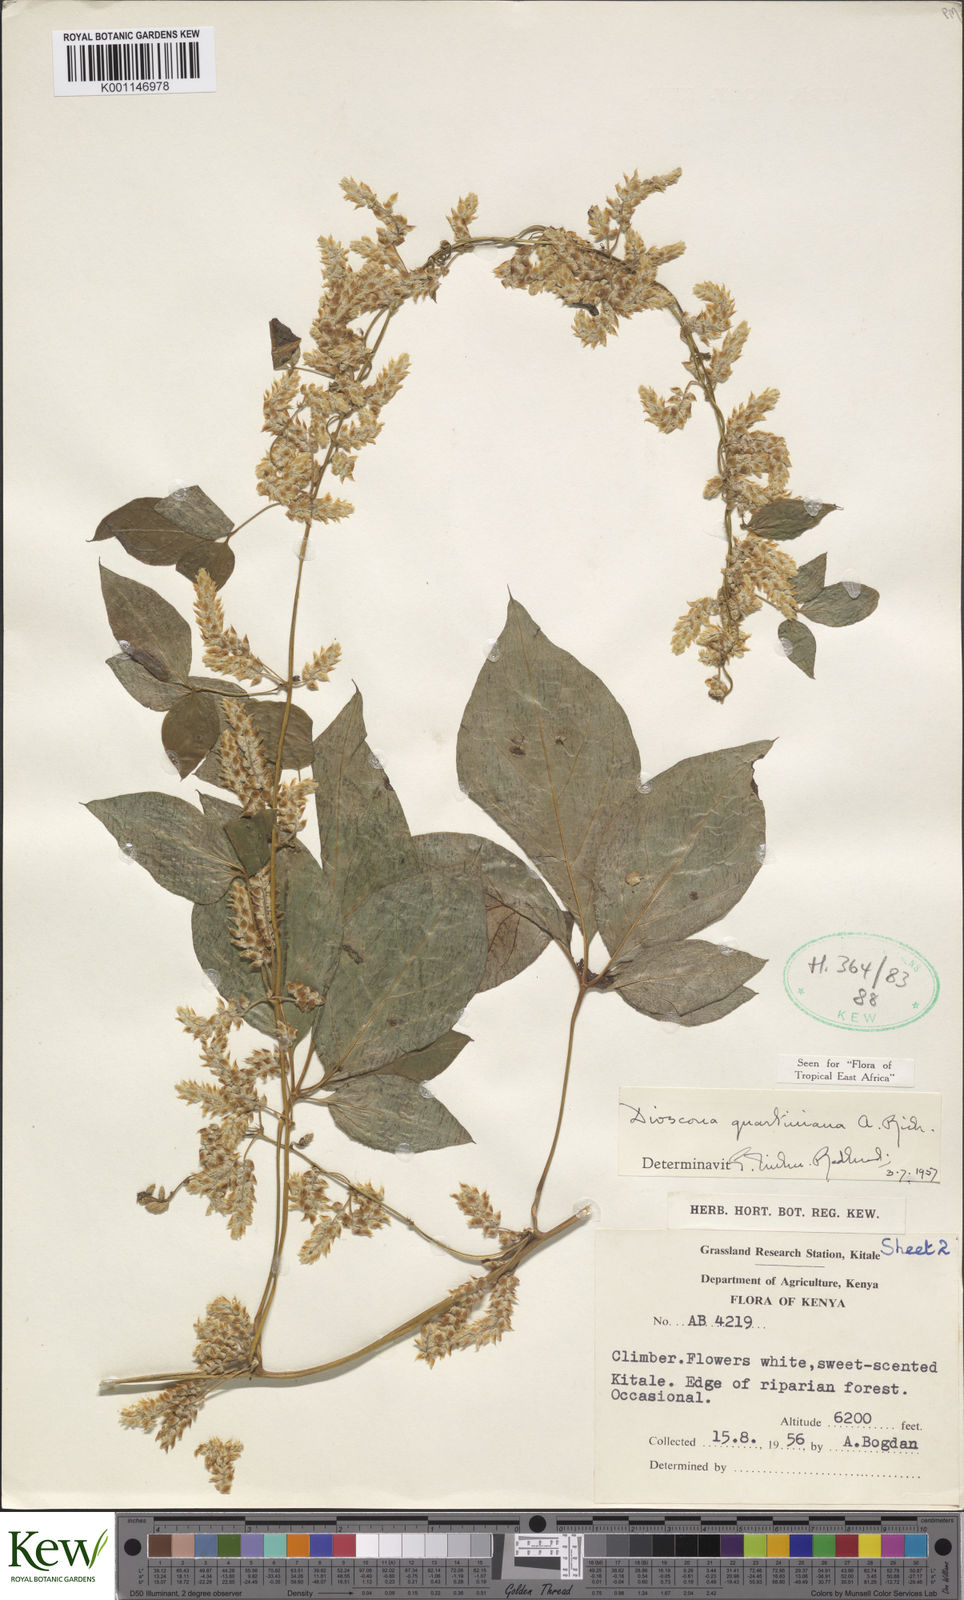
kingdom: Plantae
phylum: Tracheophyta
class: Liliopsida
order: Dioscoreales
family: Dioscoreaceae
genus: Dioscorea
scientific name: Dioscorea quartiniana
